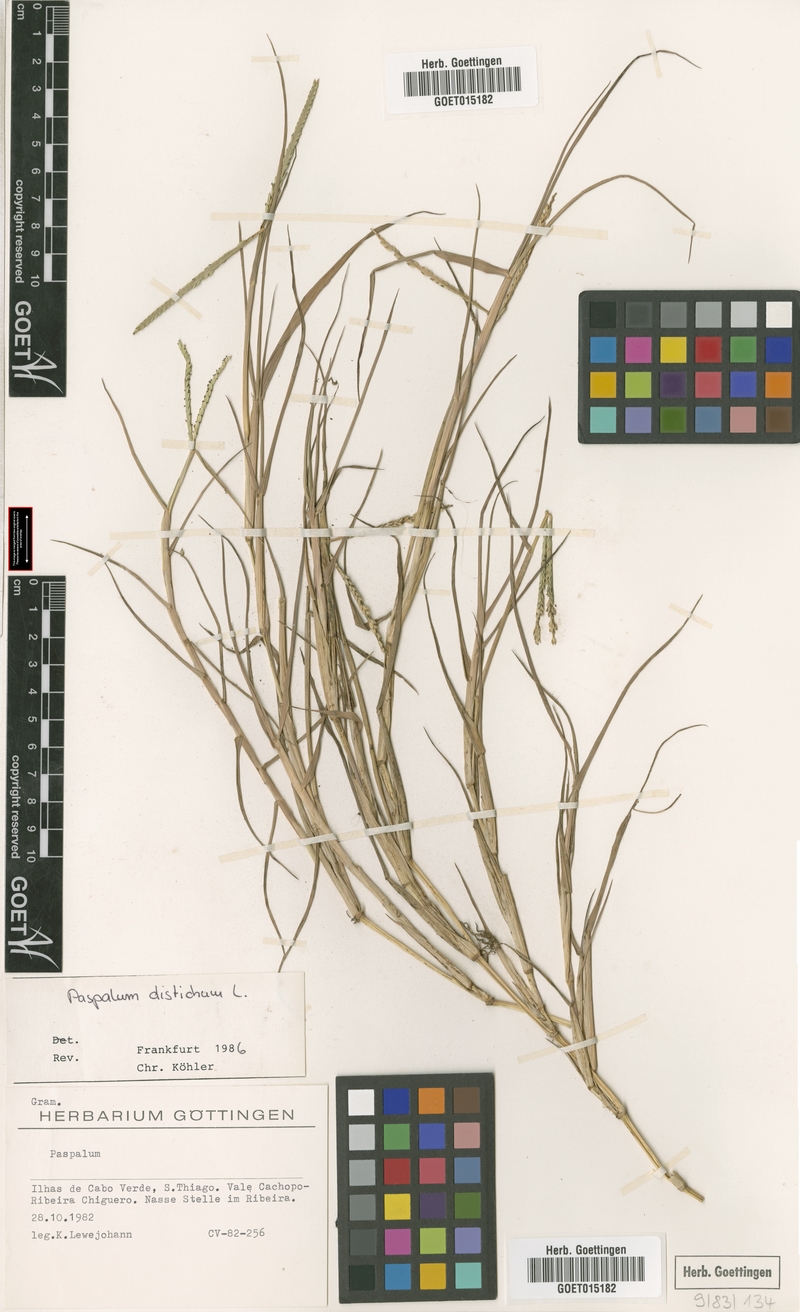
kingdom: Plantae
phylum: Tracheophyta
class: Liliopsida
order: Poales
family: Poaceae
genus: Paspalum
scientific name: Paspalum distichum
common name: Knotgrass
